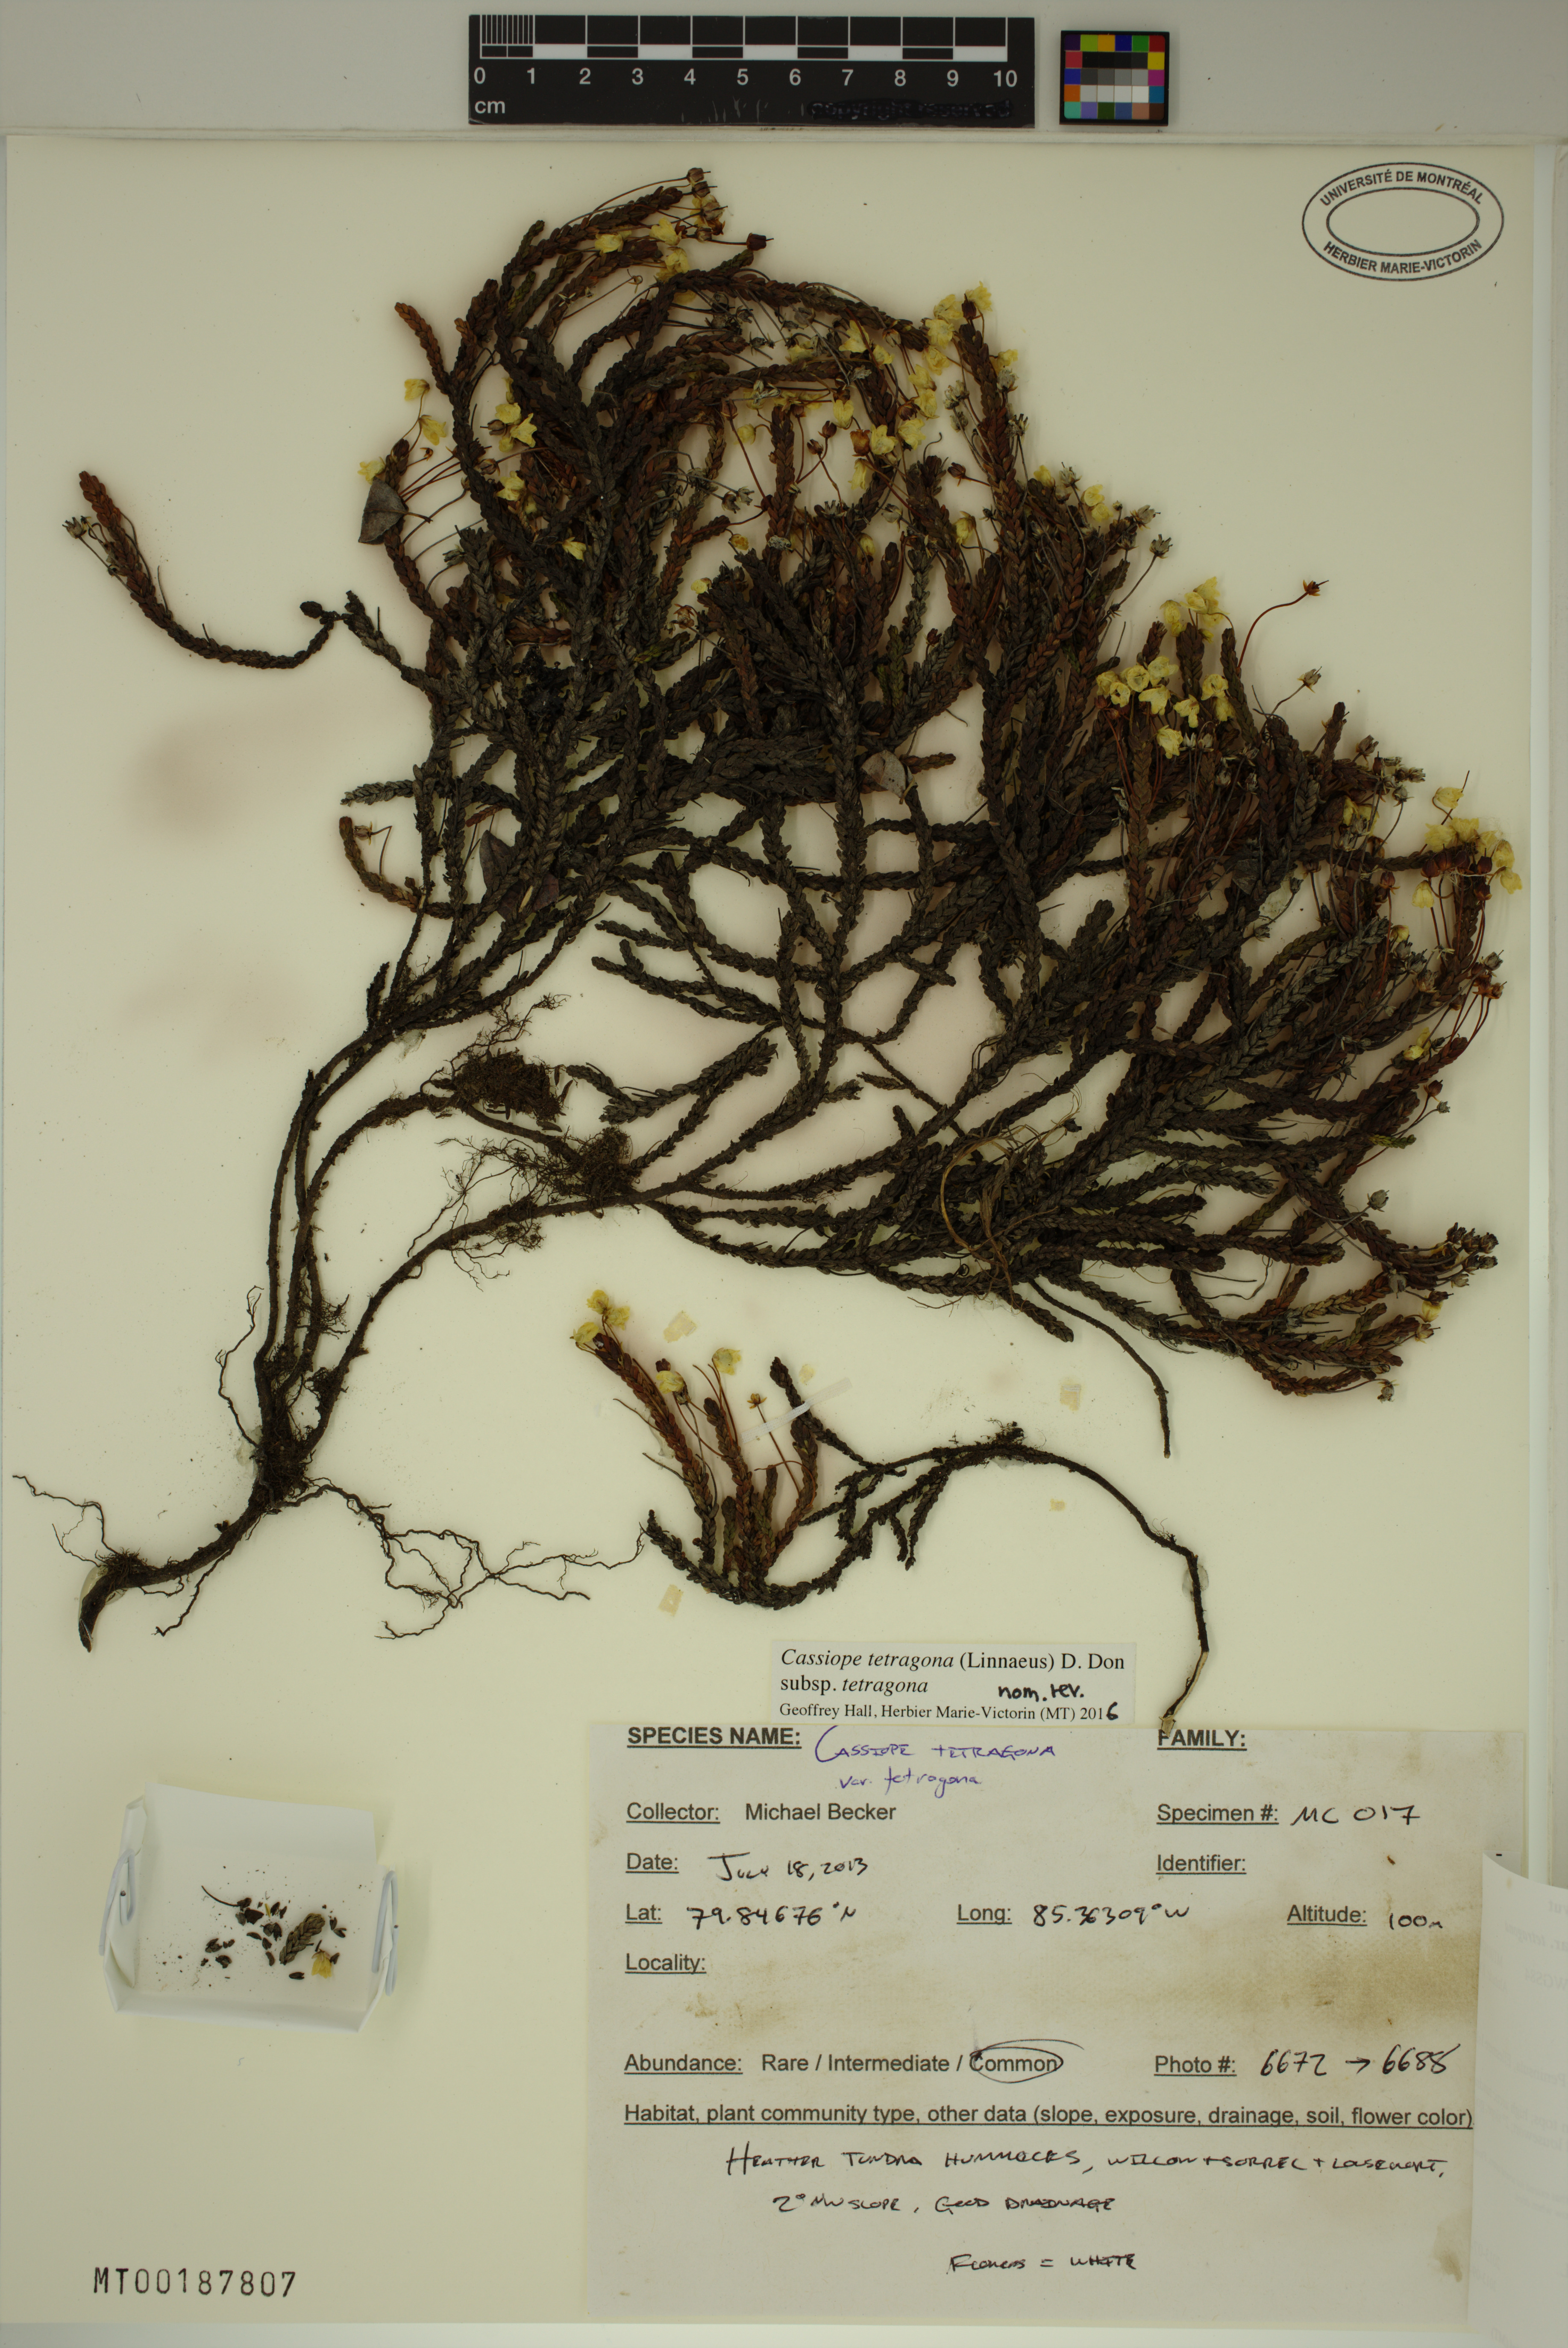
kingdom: Plantae
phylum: Tracheophyta
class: Magnoliopsida
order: Ericales
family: Ericaceae
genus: Cassiope
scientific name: Cassiope tetragona
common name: Arctic bell heather
